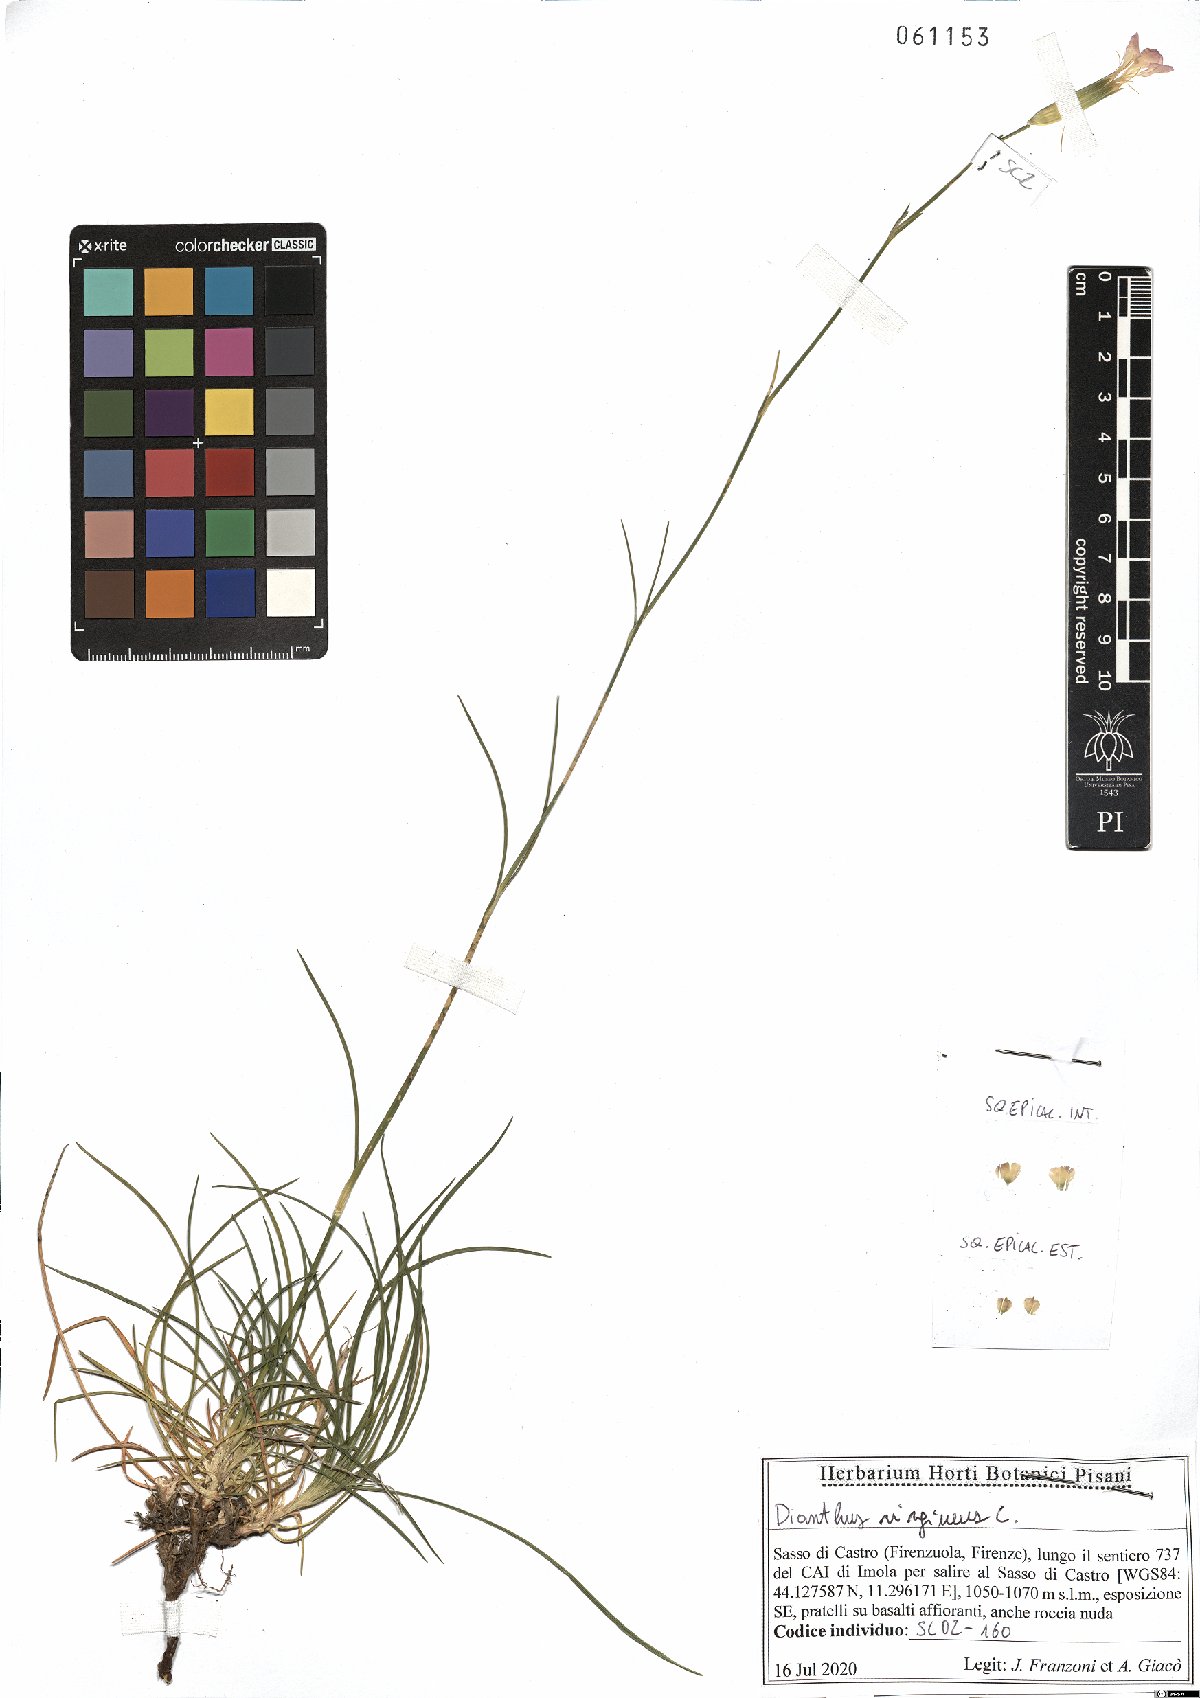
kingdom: Plantae
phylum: Tracheophyta
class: Magnoliopsida
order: Caryophyllales
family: Caryophyllaceae
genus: Dianthus
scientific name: Dianthus virgineus
